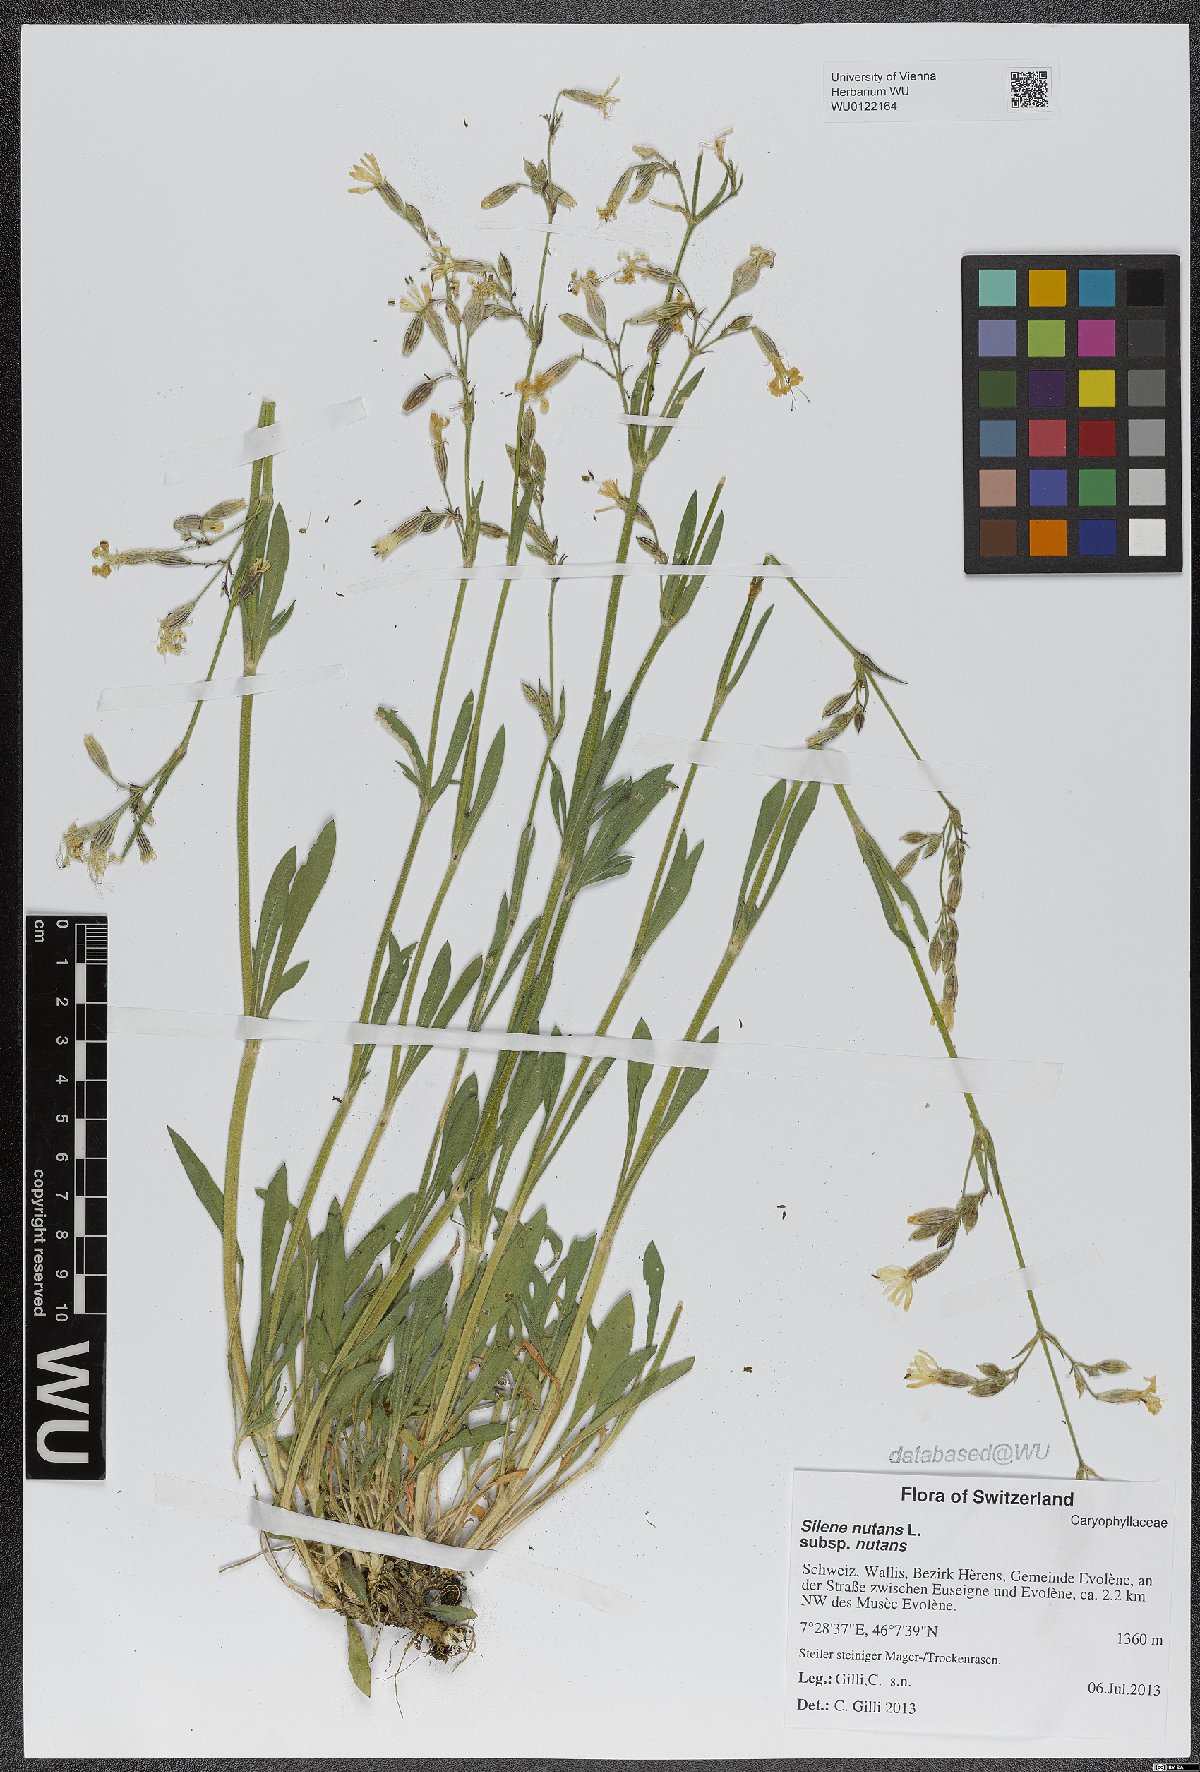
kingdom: Plantae
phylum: Tracheophyta
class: Magnoliopsida
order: Caryophyllales
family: Caryophyllaceae
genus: Silene
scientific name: Silene nutans
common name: Nottingham catchfly
